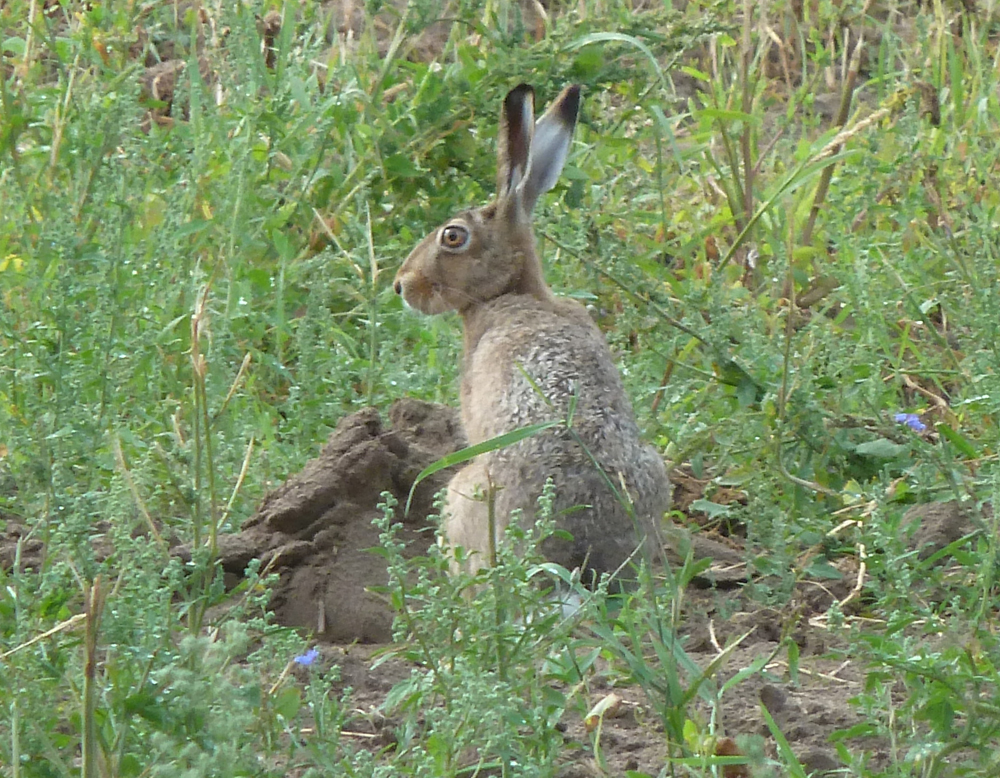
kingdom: Animalia
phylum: Chordata
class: Mammalia
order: Lagomorpha
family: Leporidae
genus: Lepus
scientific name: Lepus europaeus
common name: European hare
